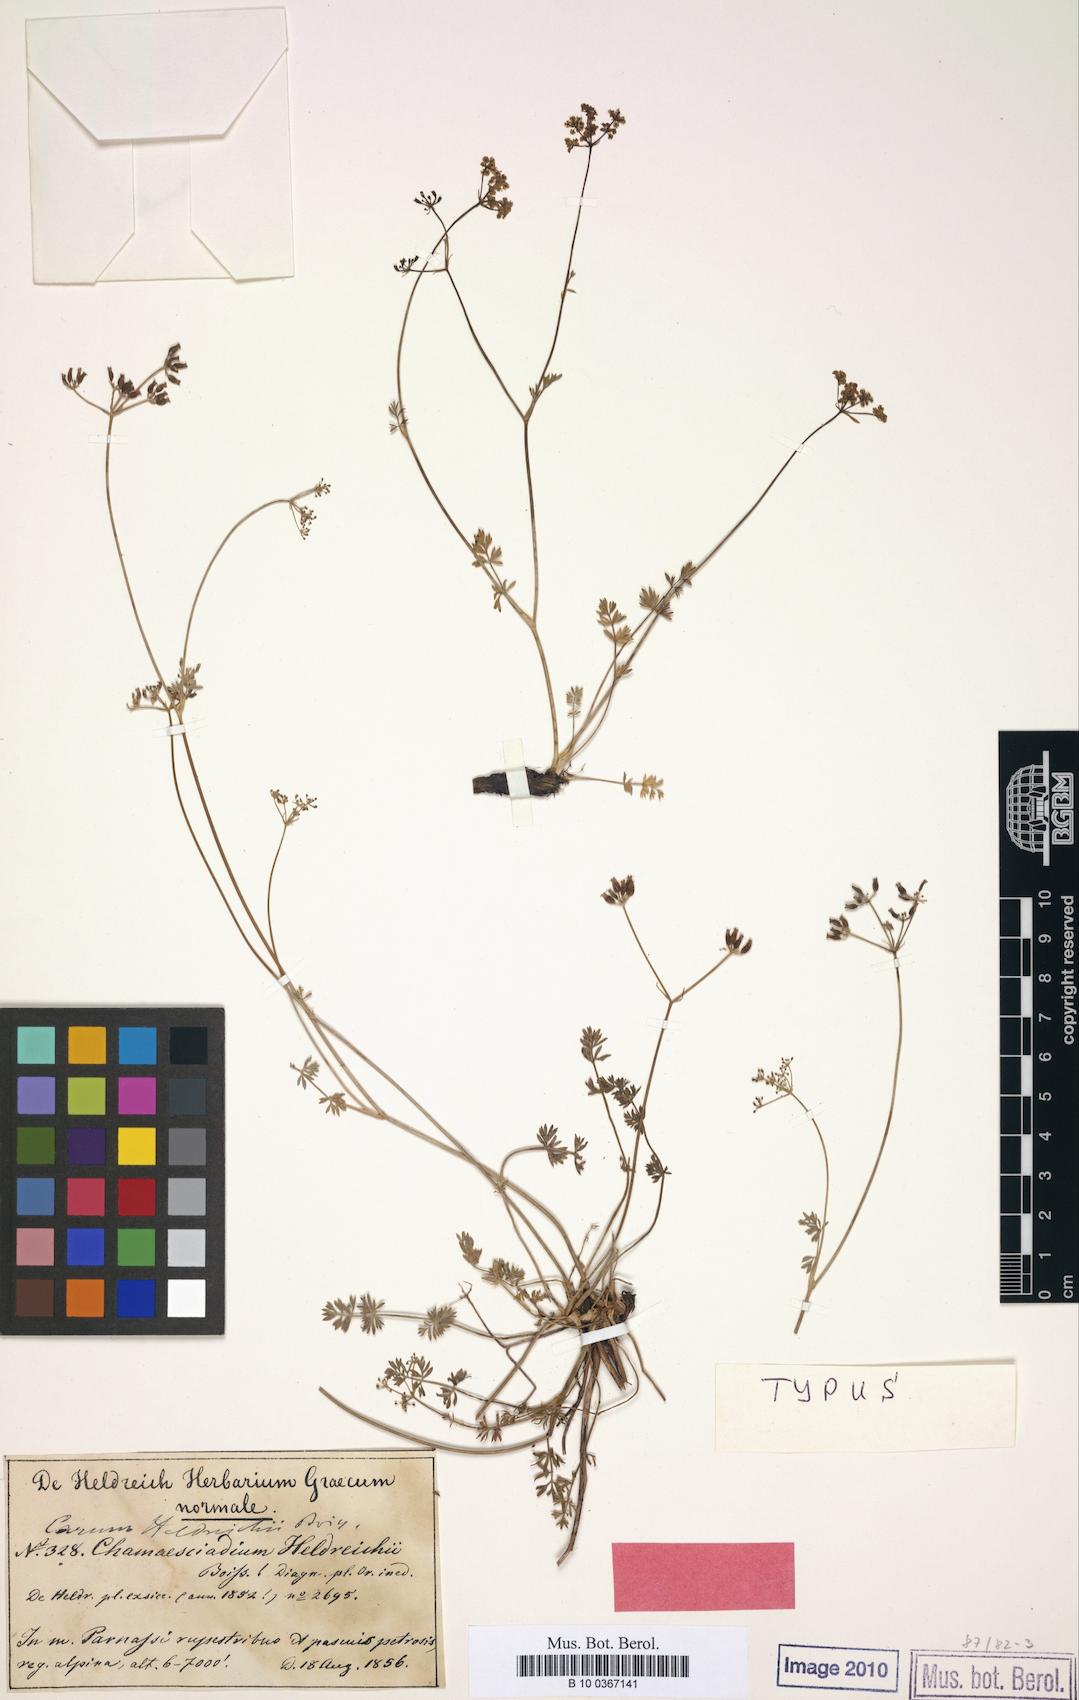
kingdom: Plantae
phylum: Tracheophyta
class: Magnoliopsida
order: Apiales
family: Apiaceae
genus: Carum
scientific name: Carum heldreichii
